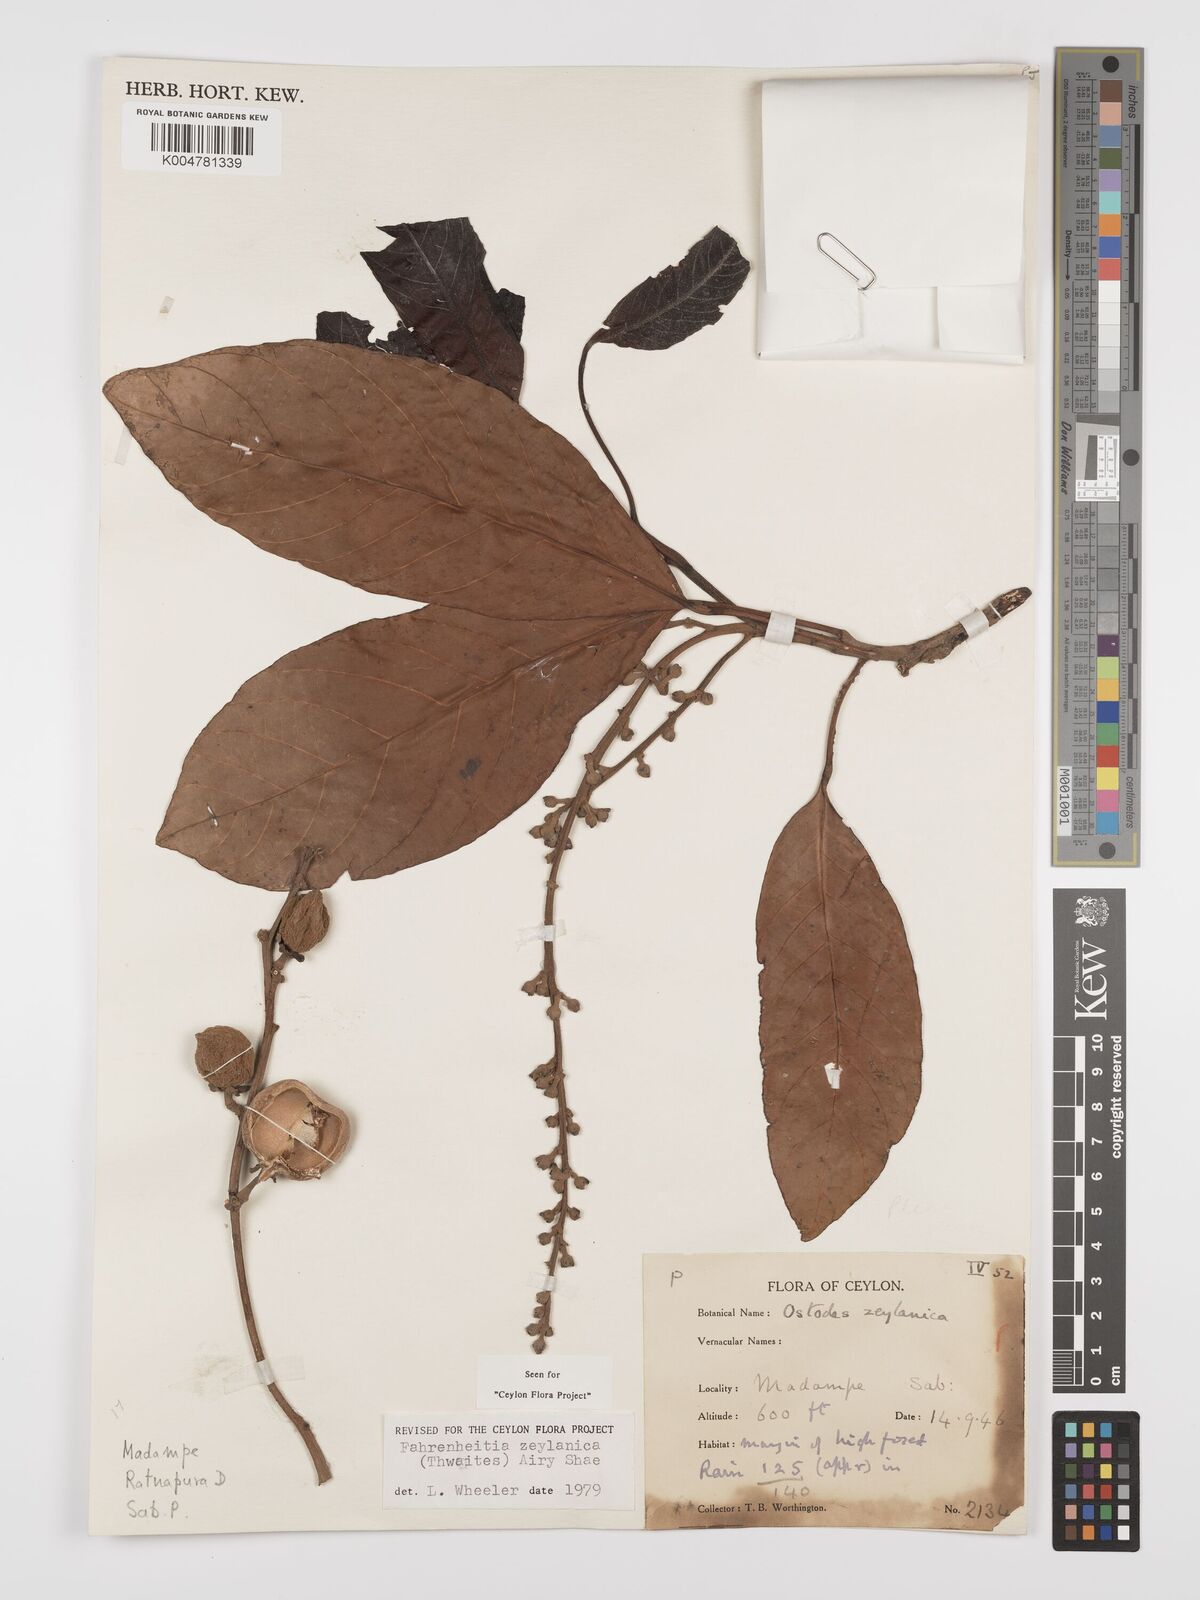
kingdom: Plantae
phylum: Tracheophyta
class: Magnoliopsida
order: Malpighiales
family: Euphorbiaceae
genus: Paracroton
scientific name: Paracroton zeylanicus
